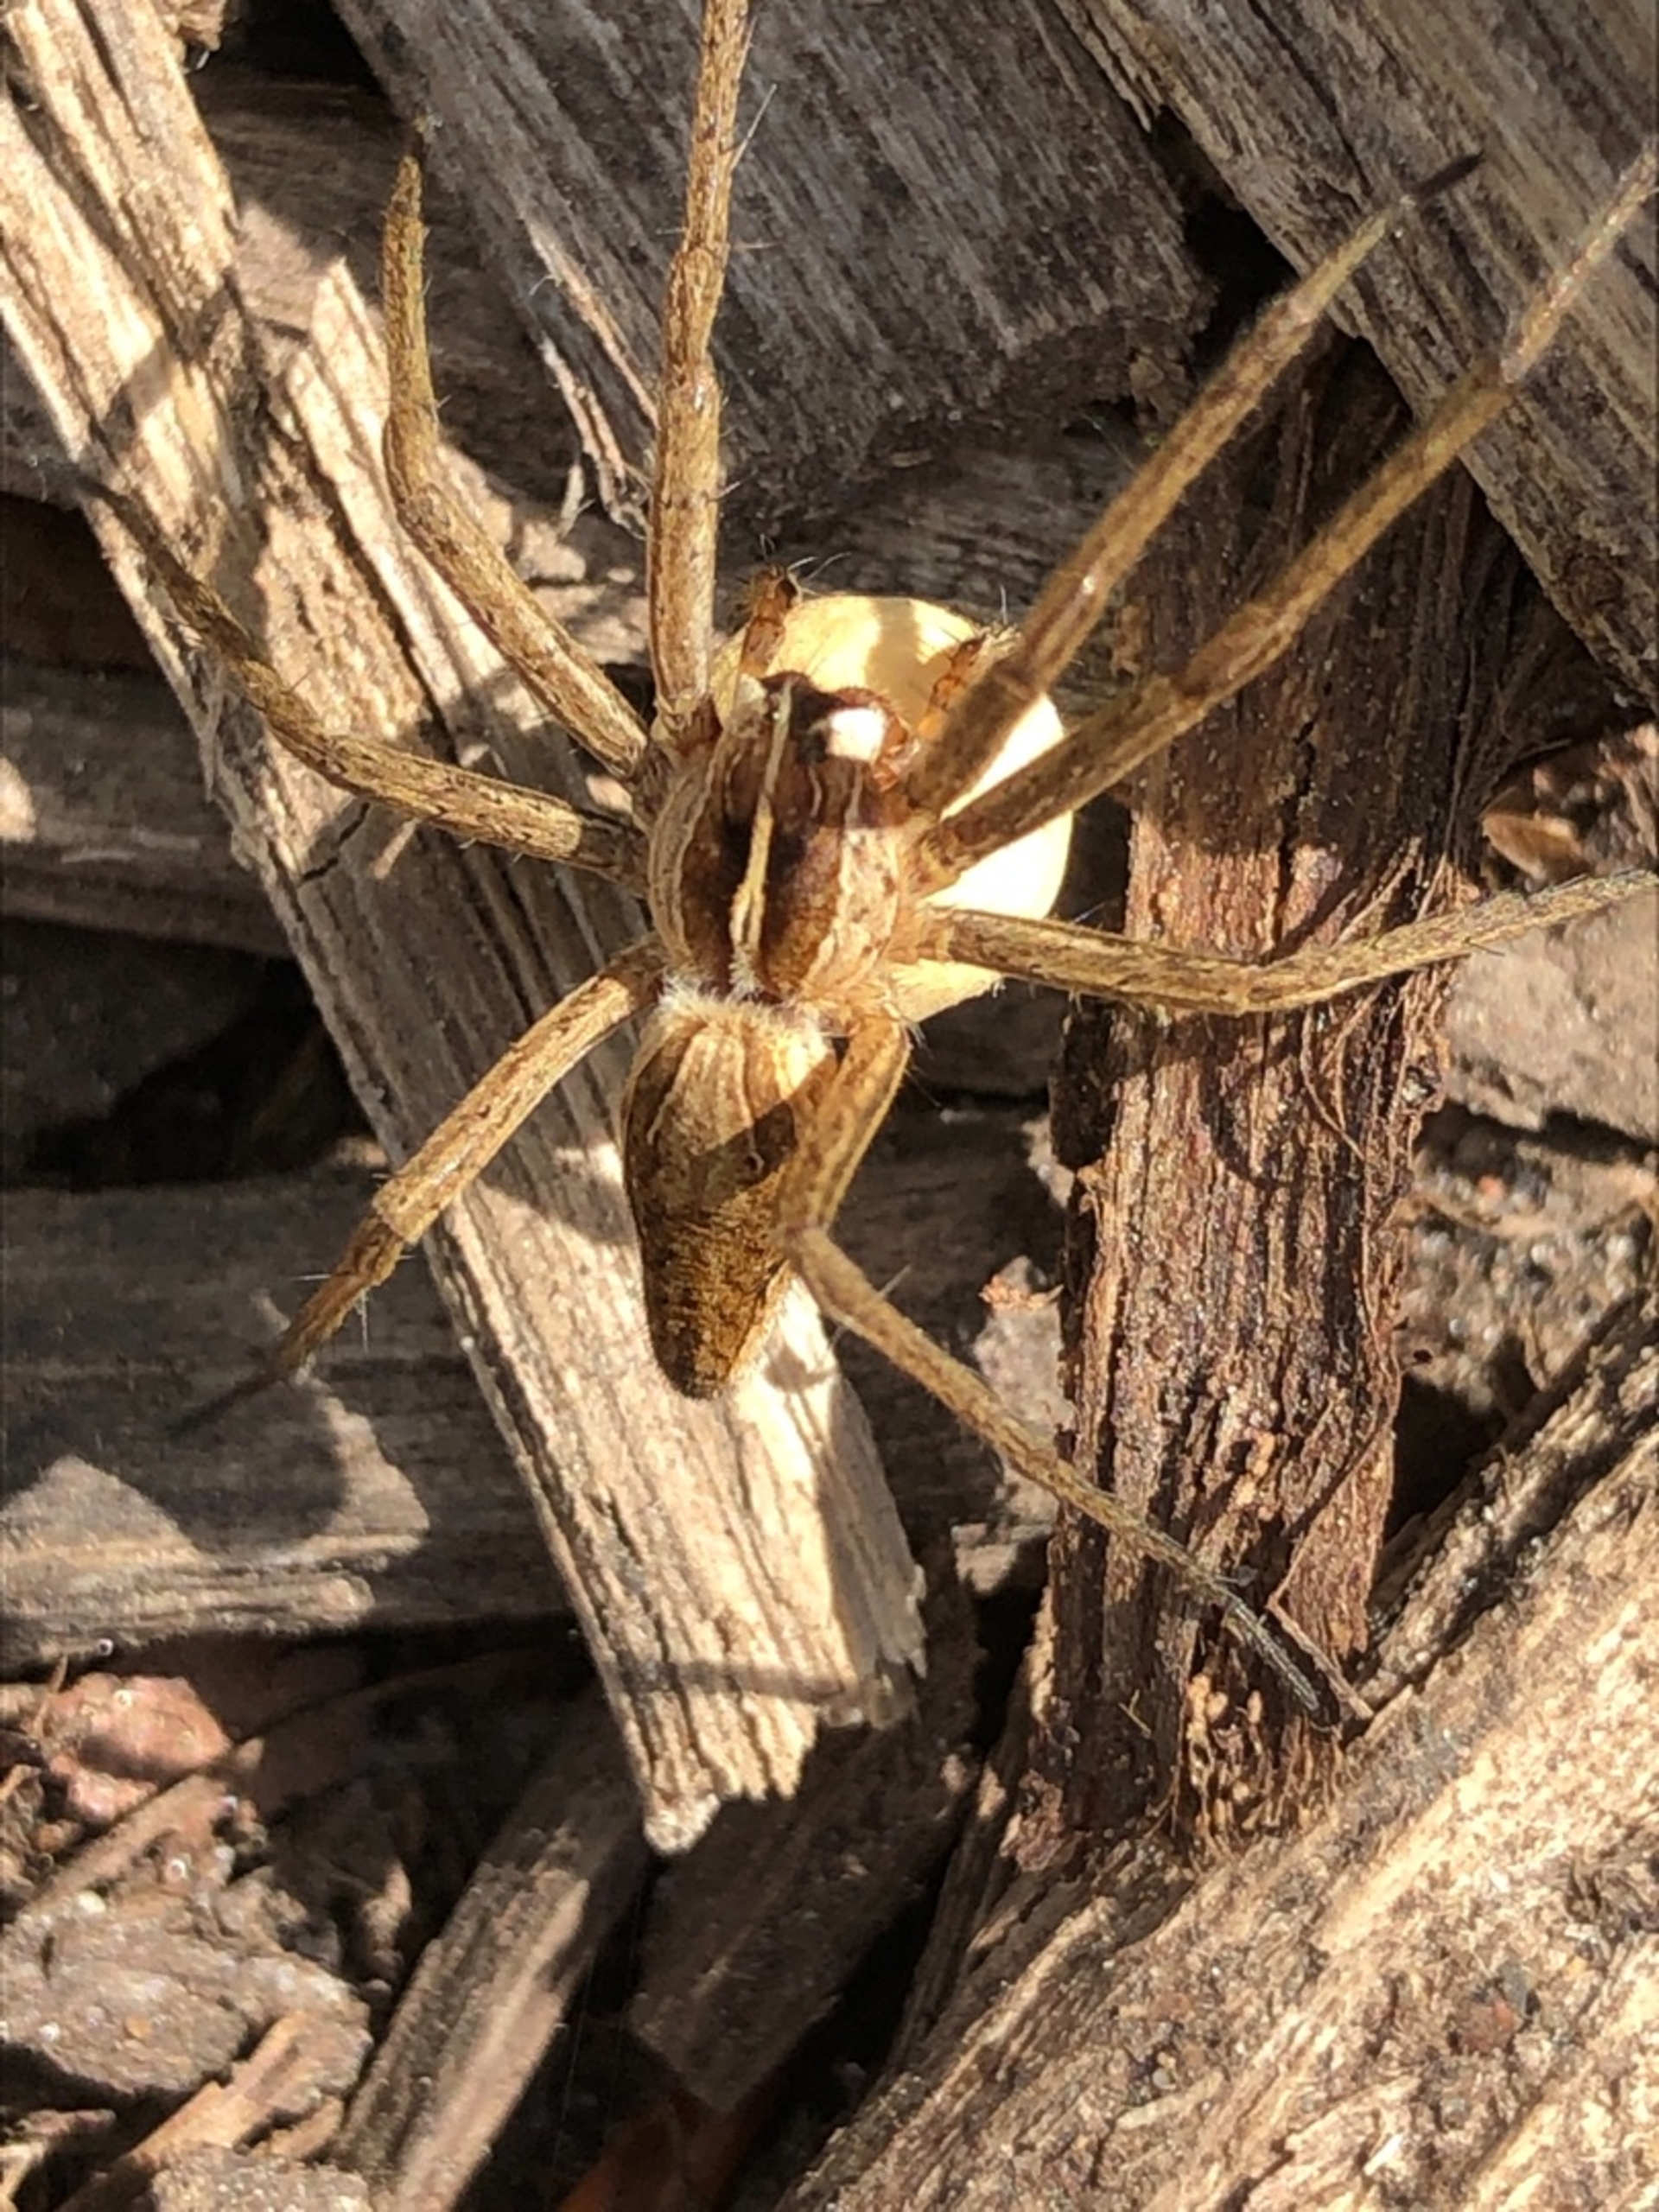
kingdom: Animalia
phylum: Arthropoda
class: Arachnida
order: Araneae
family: Pisauridae
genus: Pisaura
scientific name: Pisaura mirabilis
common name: Almindelig rovedderkop
